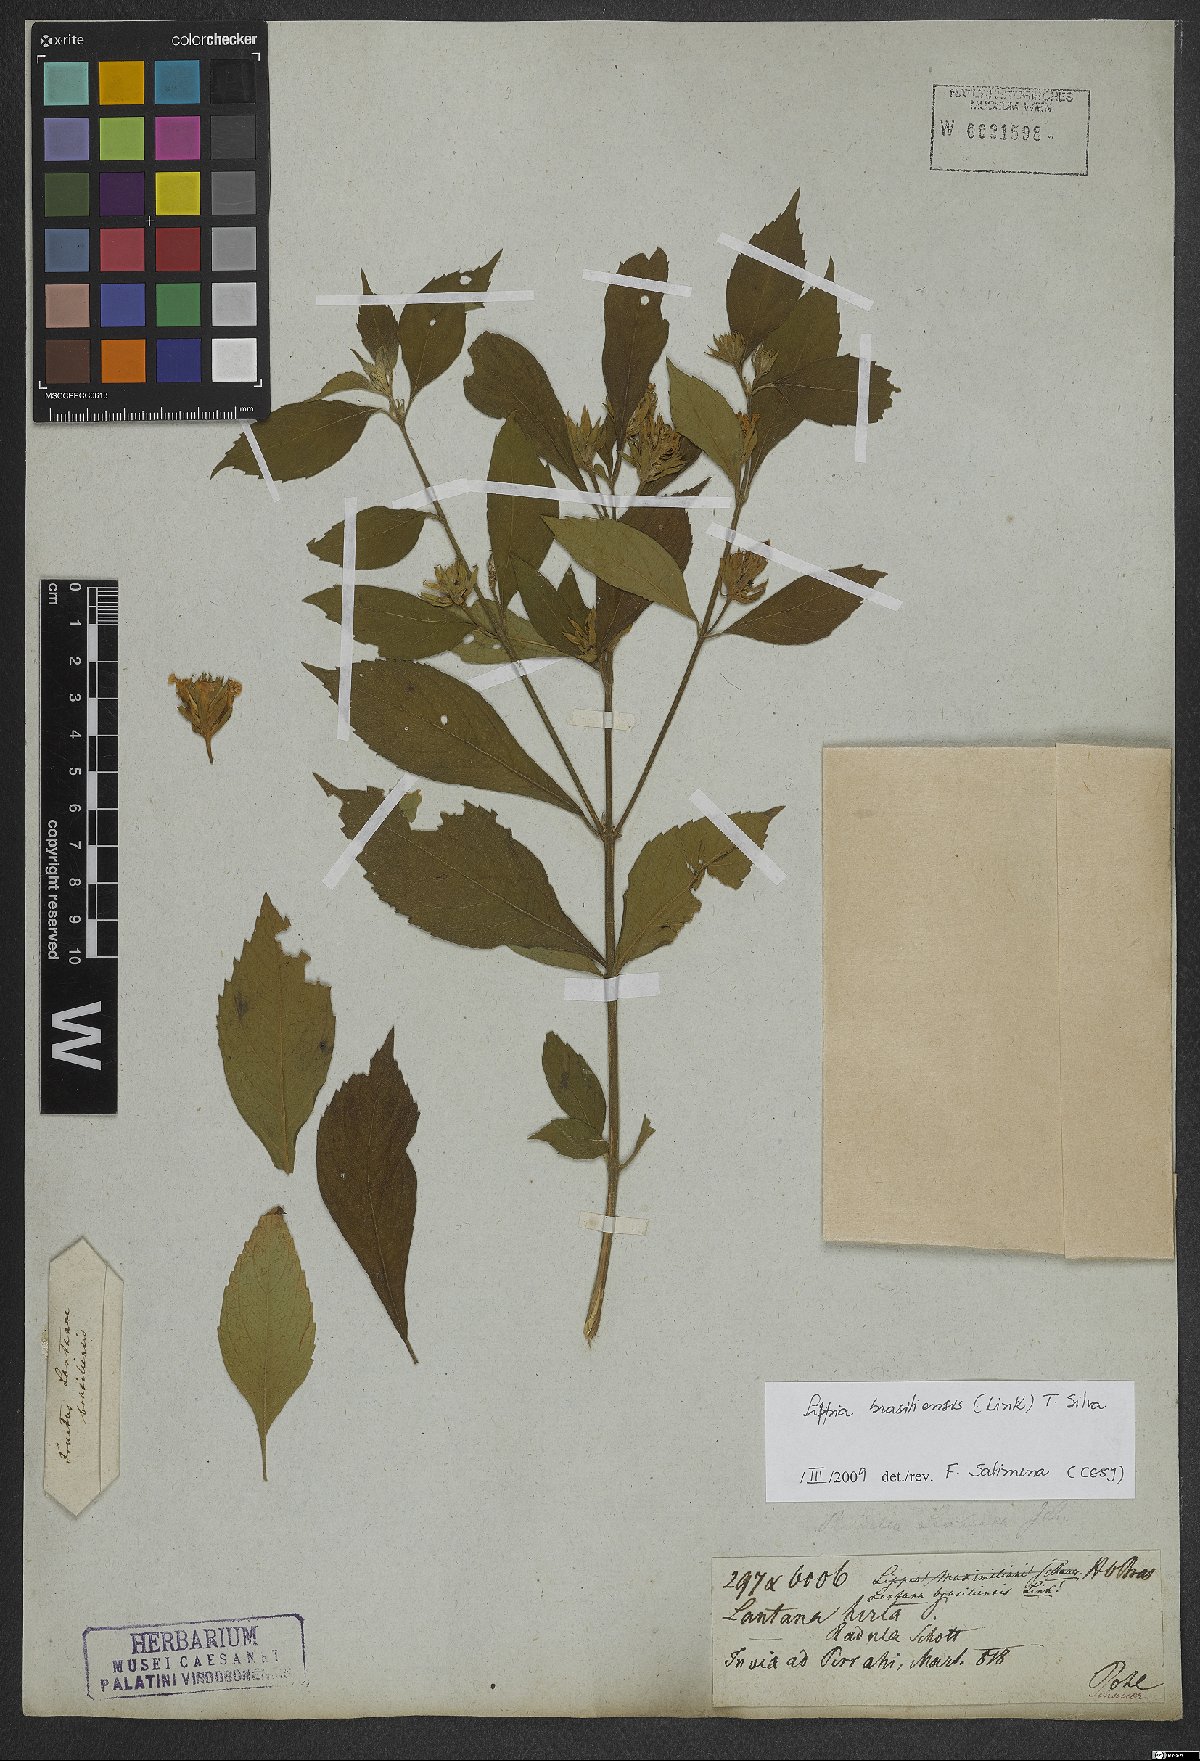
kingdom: Plantae
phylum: Tracheophyta
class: Magnoliopsida
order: Lamiales
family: Verbenaceae
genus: Lippia
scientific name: Lippia brasiliensis
